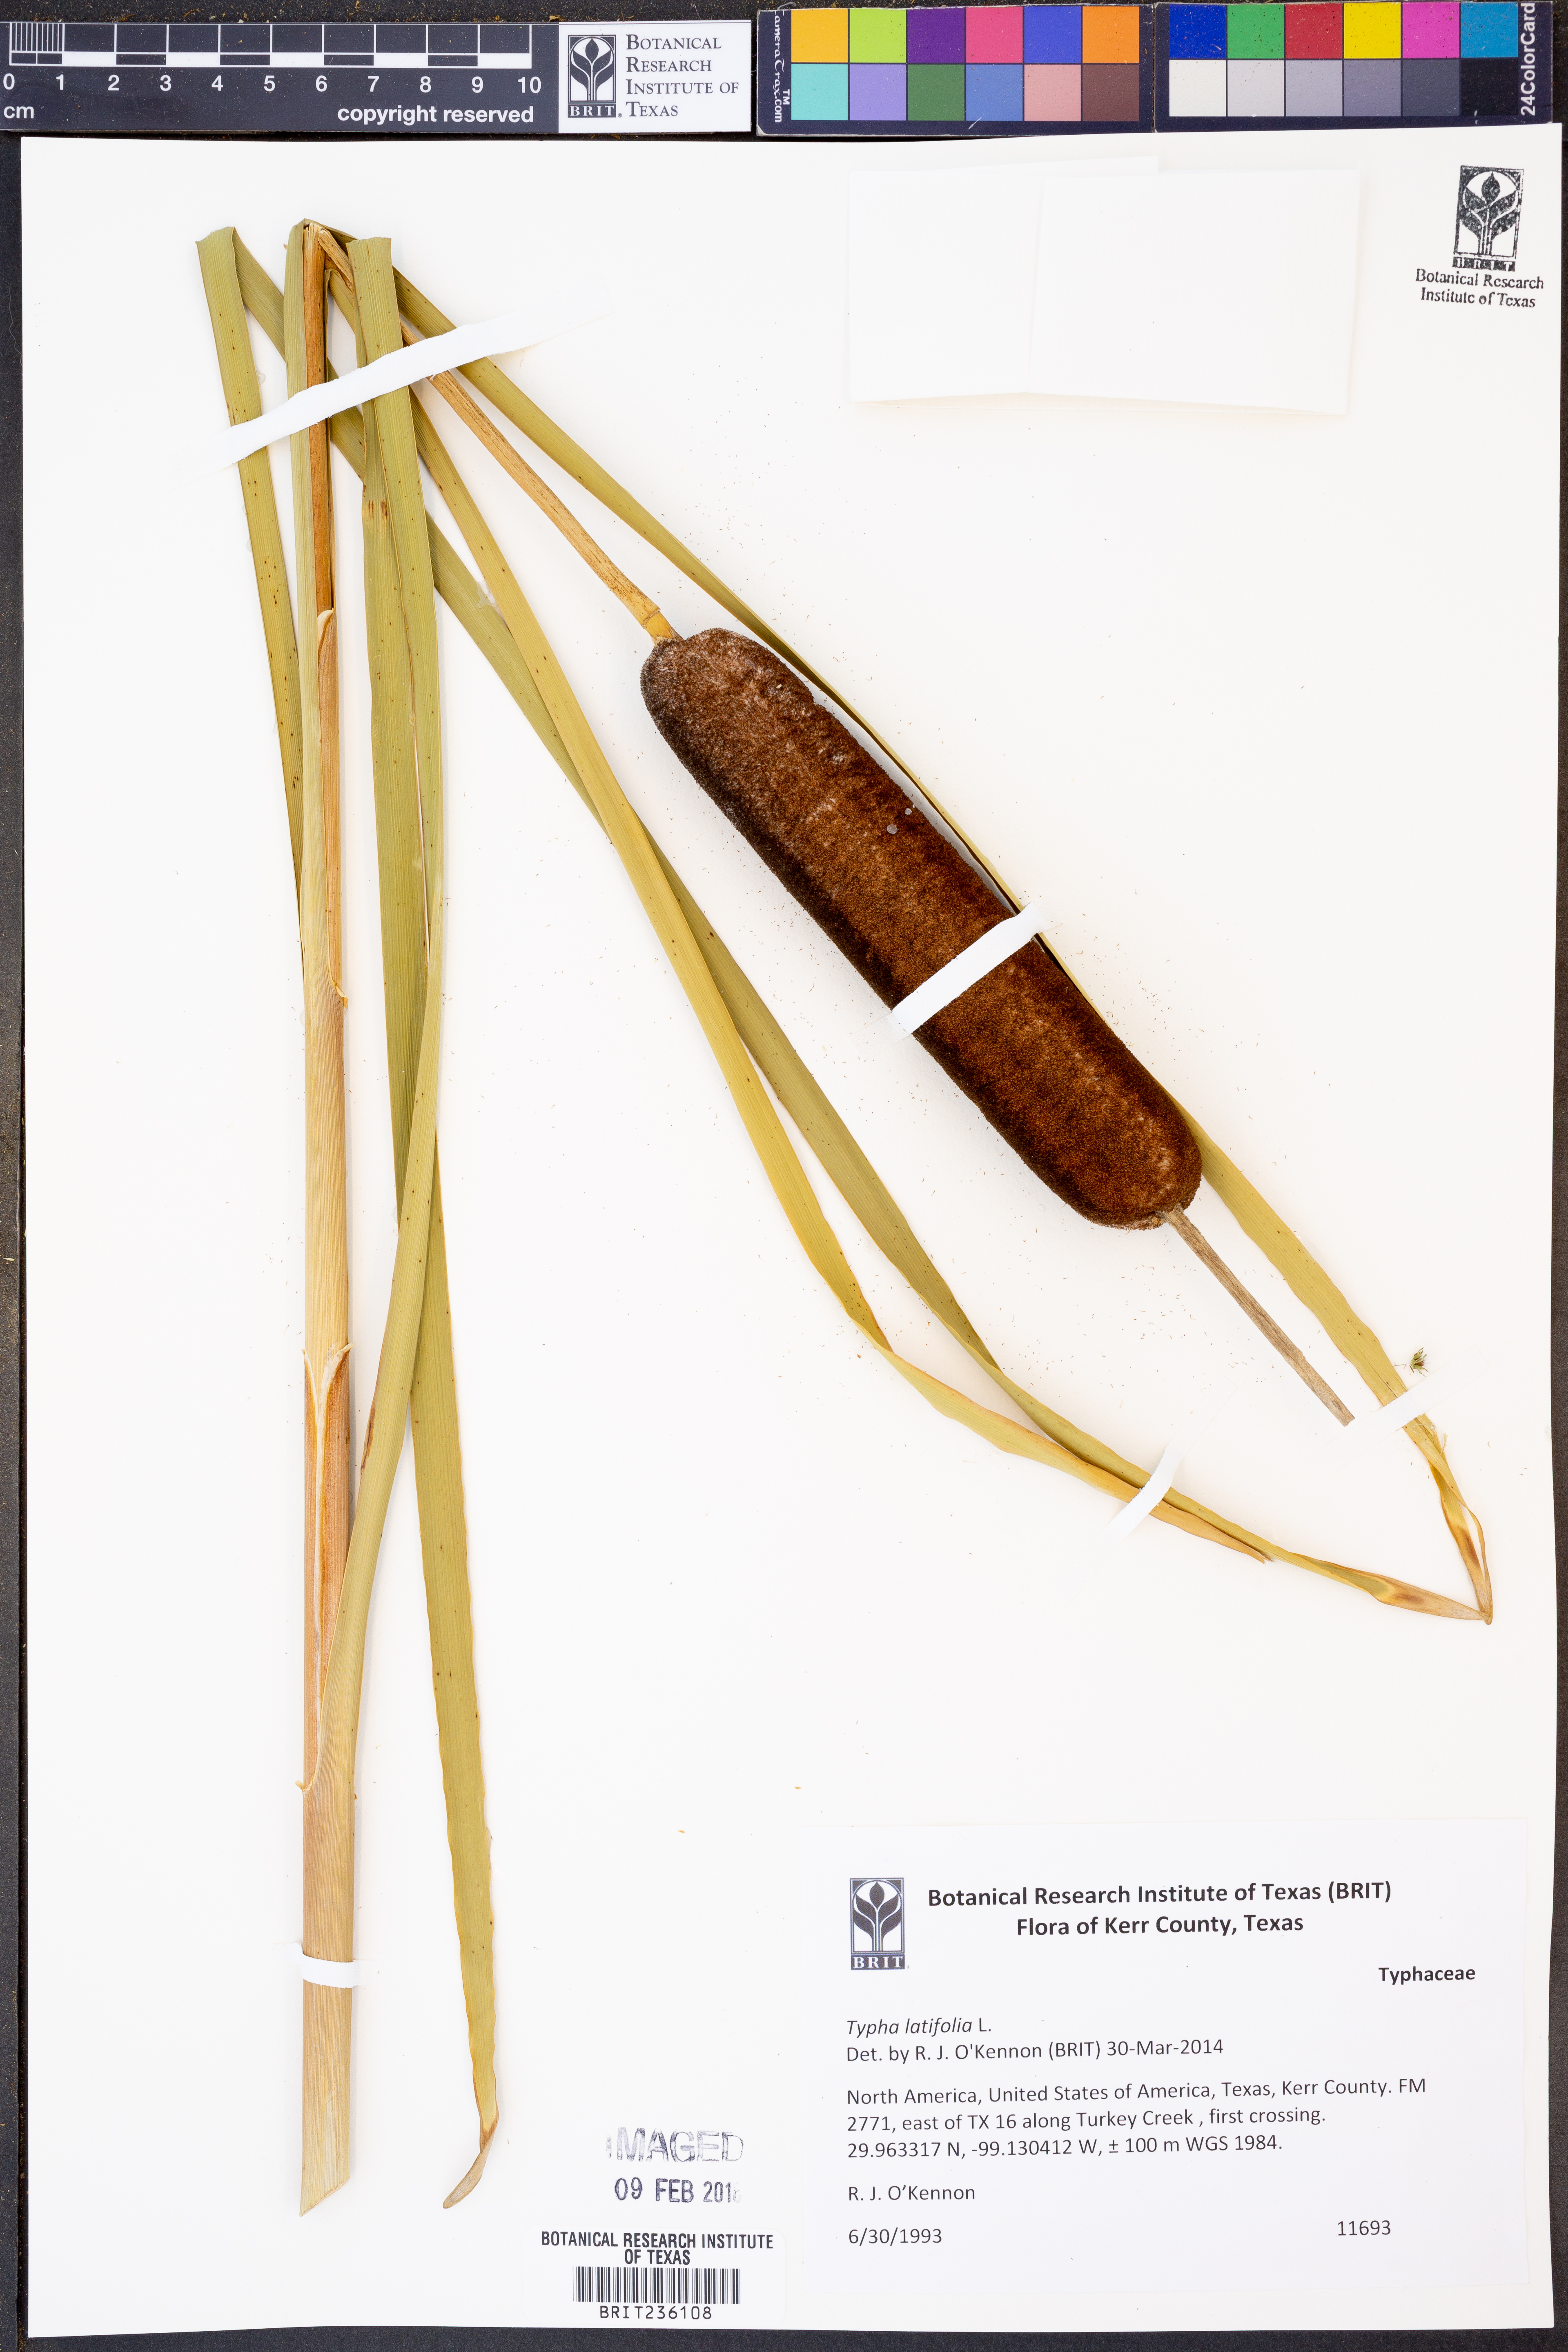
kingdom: Plantae
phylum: Tracheophyta
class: Liliopsida
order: Poales
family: Typhaceae
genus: Typha
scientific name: Typha latifolia
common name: Broadleaf cattail
